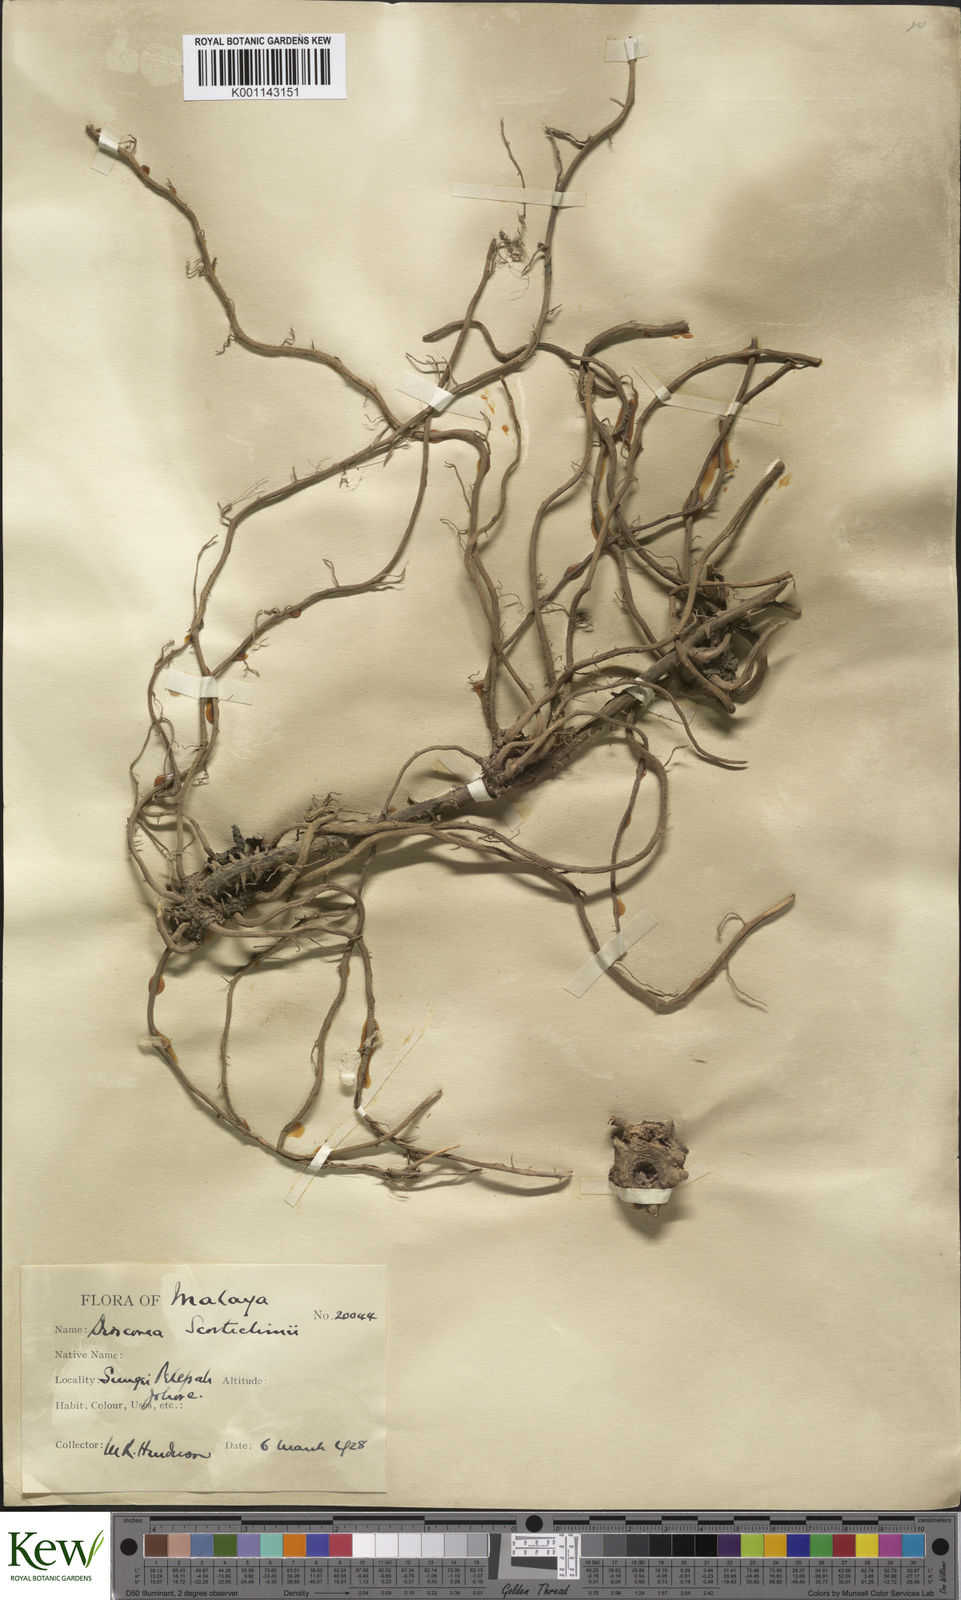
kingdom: Plantae
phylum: Tracheophyta
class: Liliopsida
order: Dioscoreales
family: Dioscoreaceae
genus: Dioscorea
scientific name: Dioscorea scortechinii
